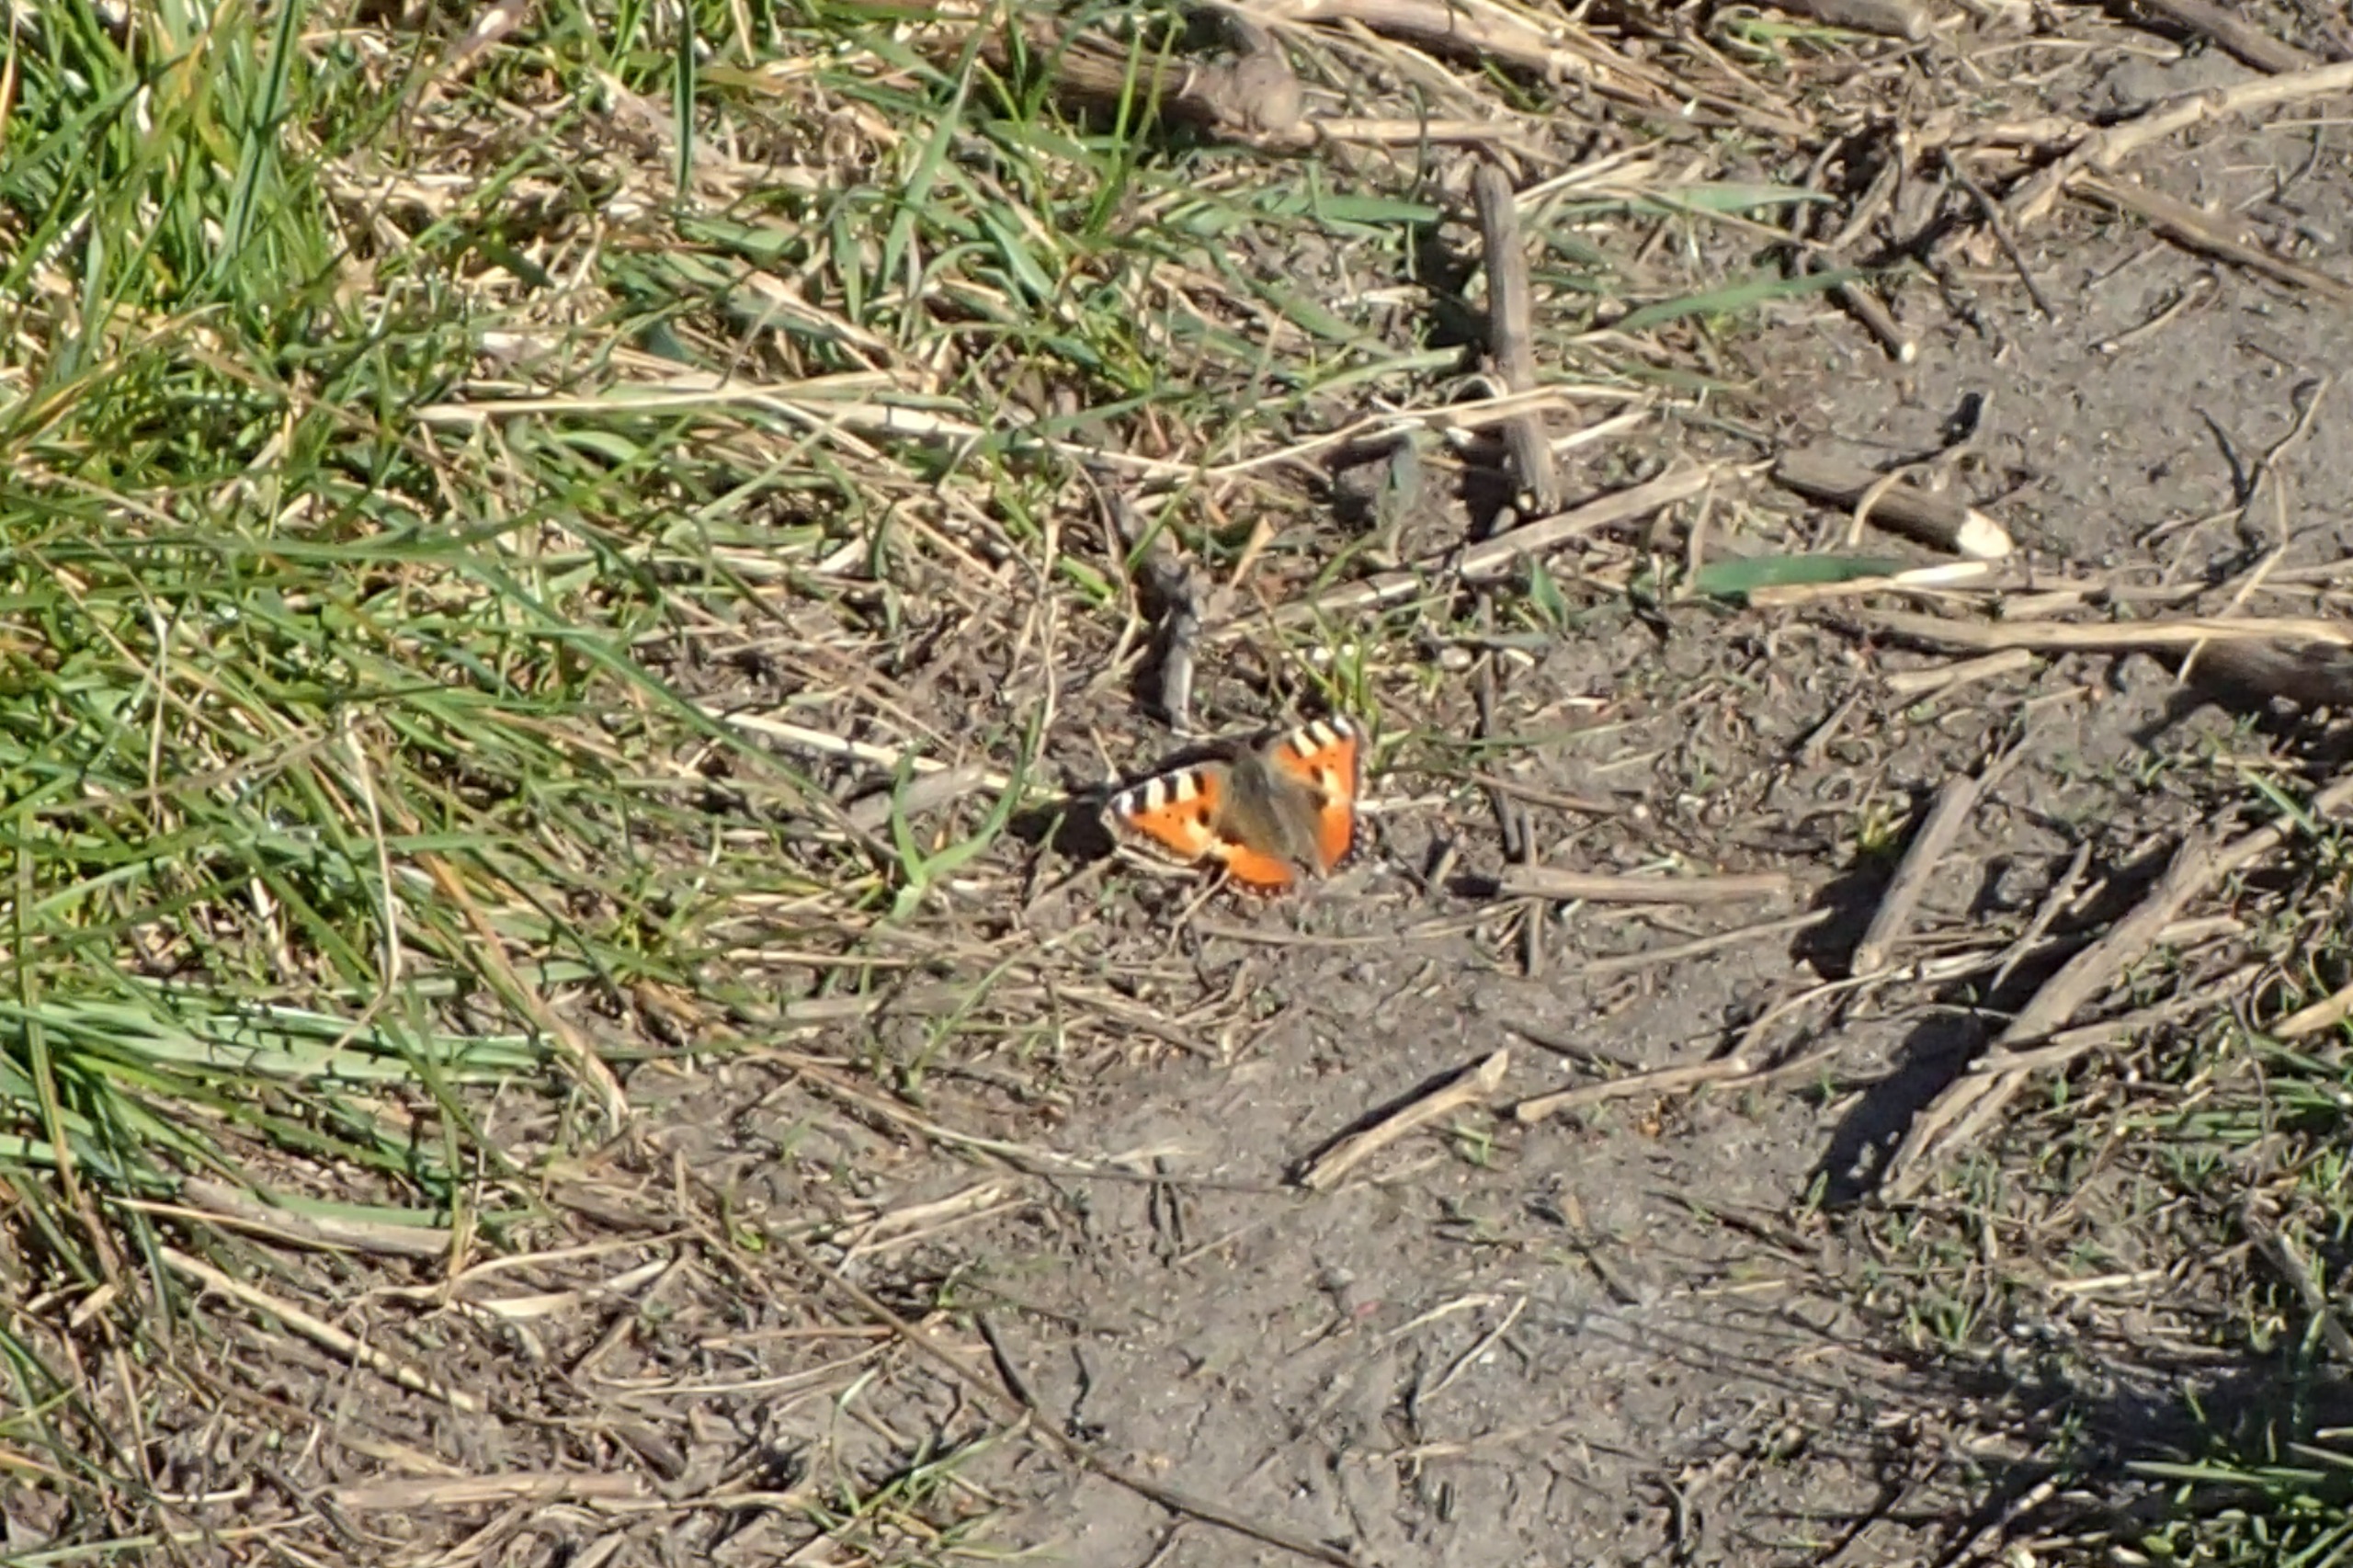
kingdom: Animalia
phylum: Arthropoda
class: Insecta
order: Lepidoptera
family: Nymphalidae
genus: Aglais
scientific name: Aglais urticae
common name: Nældens takvinge
